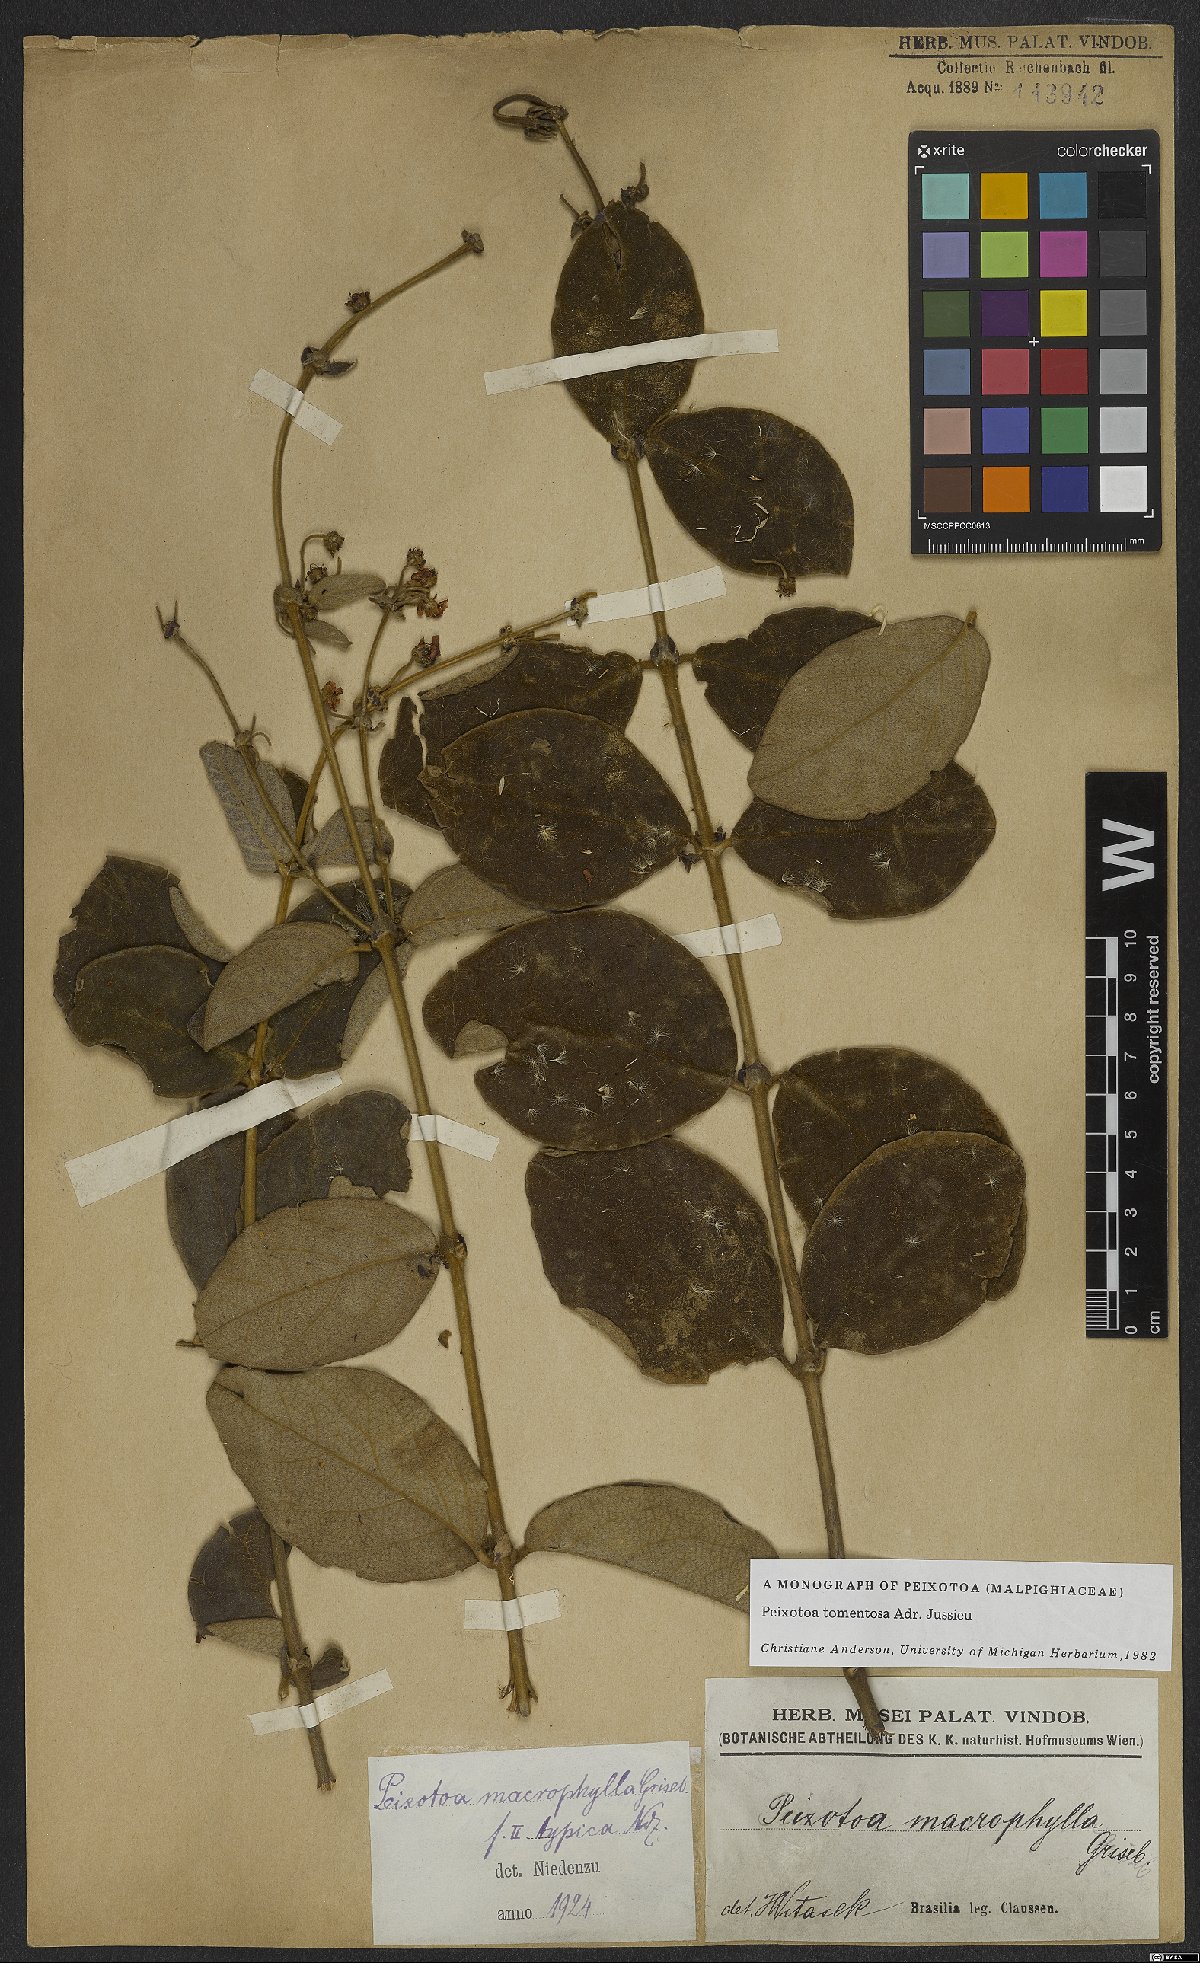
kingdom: Plantae
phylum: Tracheophyta
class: Magnoliopsida
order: Malpighiales
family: Malpighiaceae
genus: Peixotoa
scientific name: Peixotoa tomentosa
